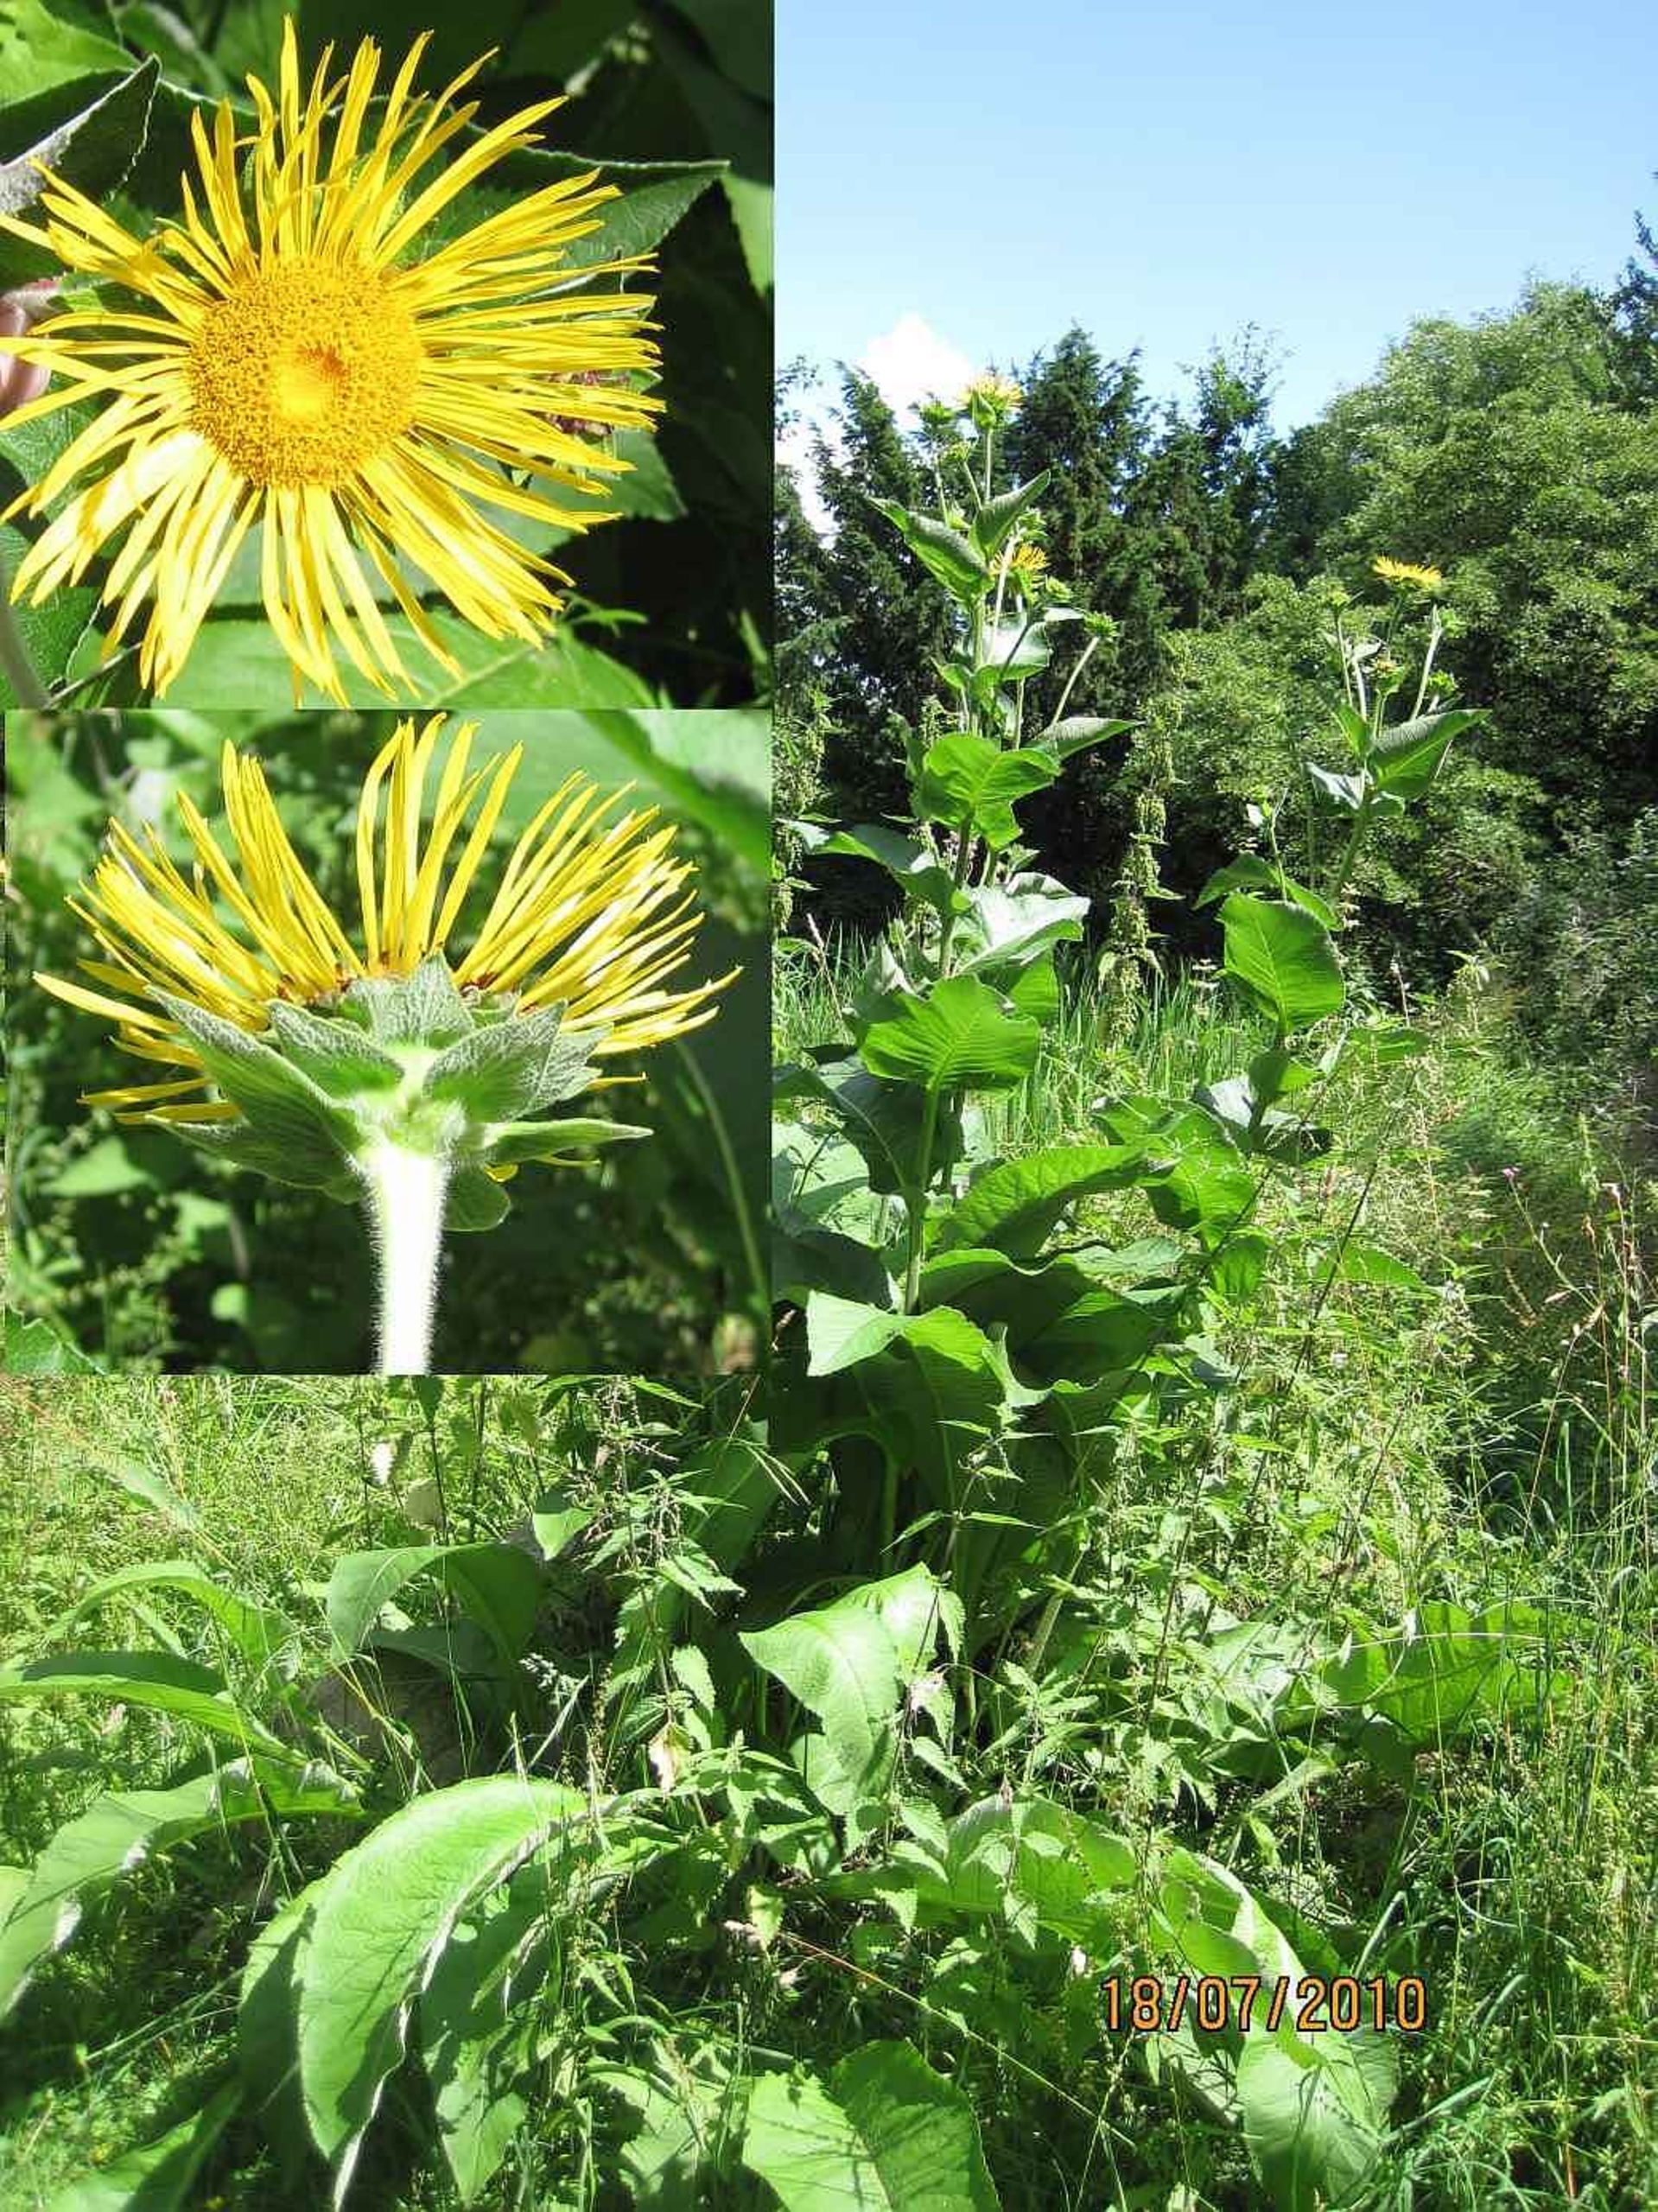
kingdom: Plantae
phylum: Tracheophyta
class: Magnoliopsida
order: Asterales
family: Asteraceae
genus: Inula
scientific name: Inula helenium
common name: Læge-alant
